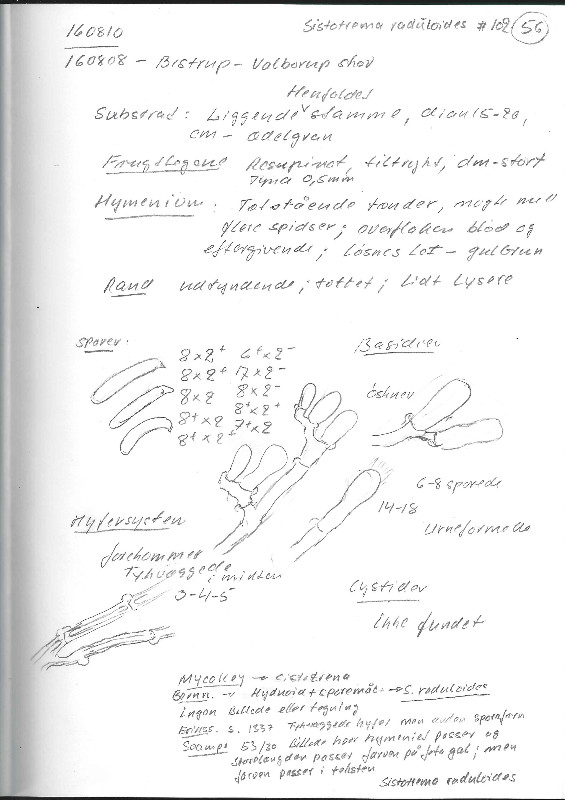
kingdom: Fungi
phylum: Basidiomycota
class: Agaricomycetes
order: Hymenochaetales
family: Schizoporaceae
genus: Alutaceodontia
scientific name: Alutaceodontia alutacea
